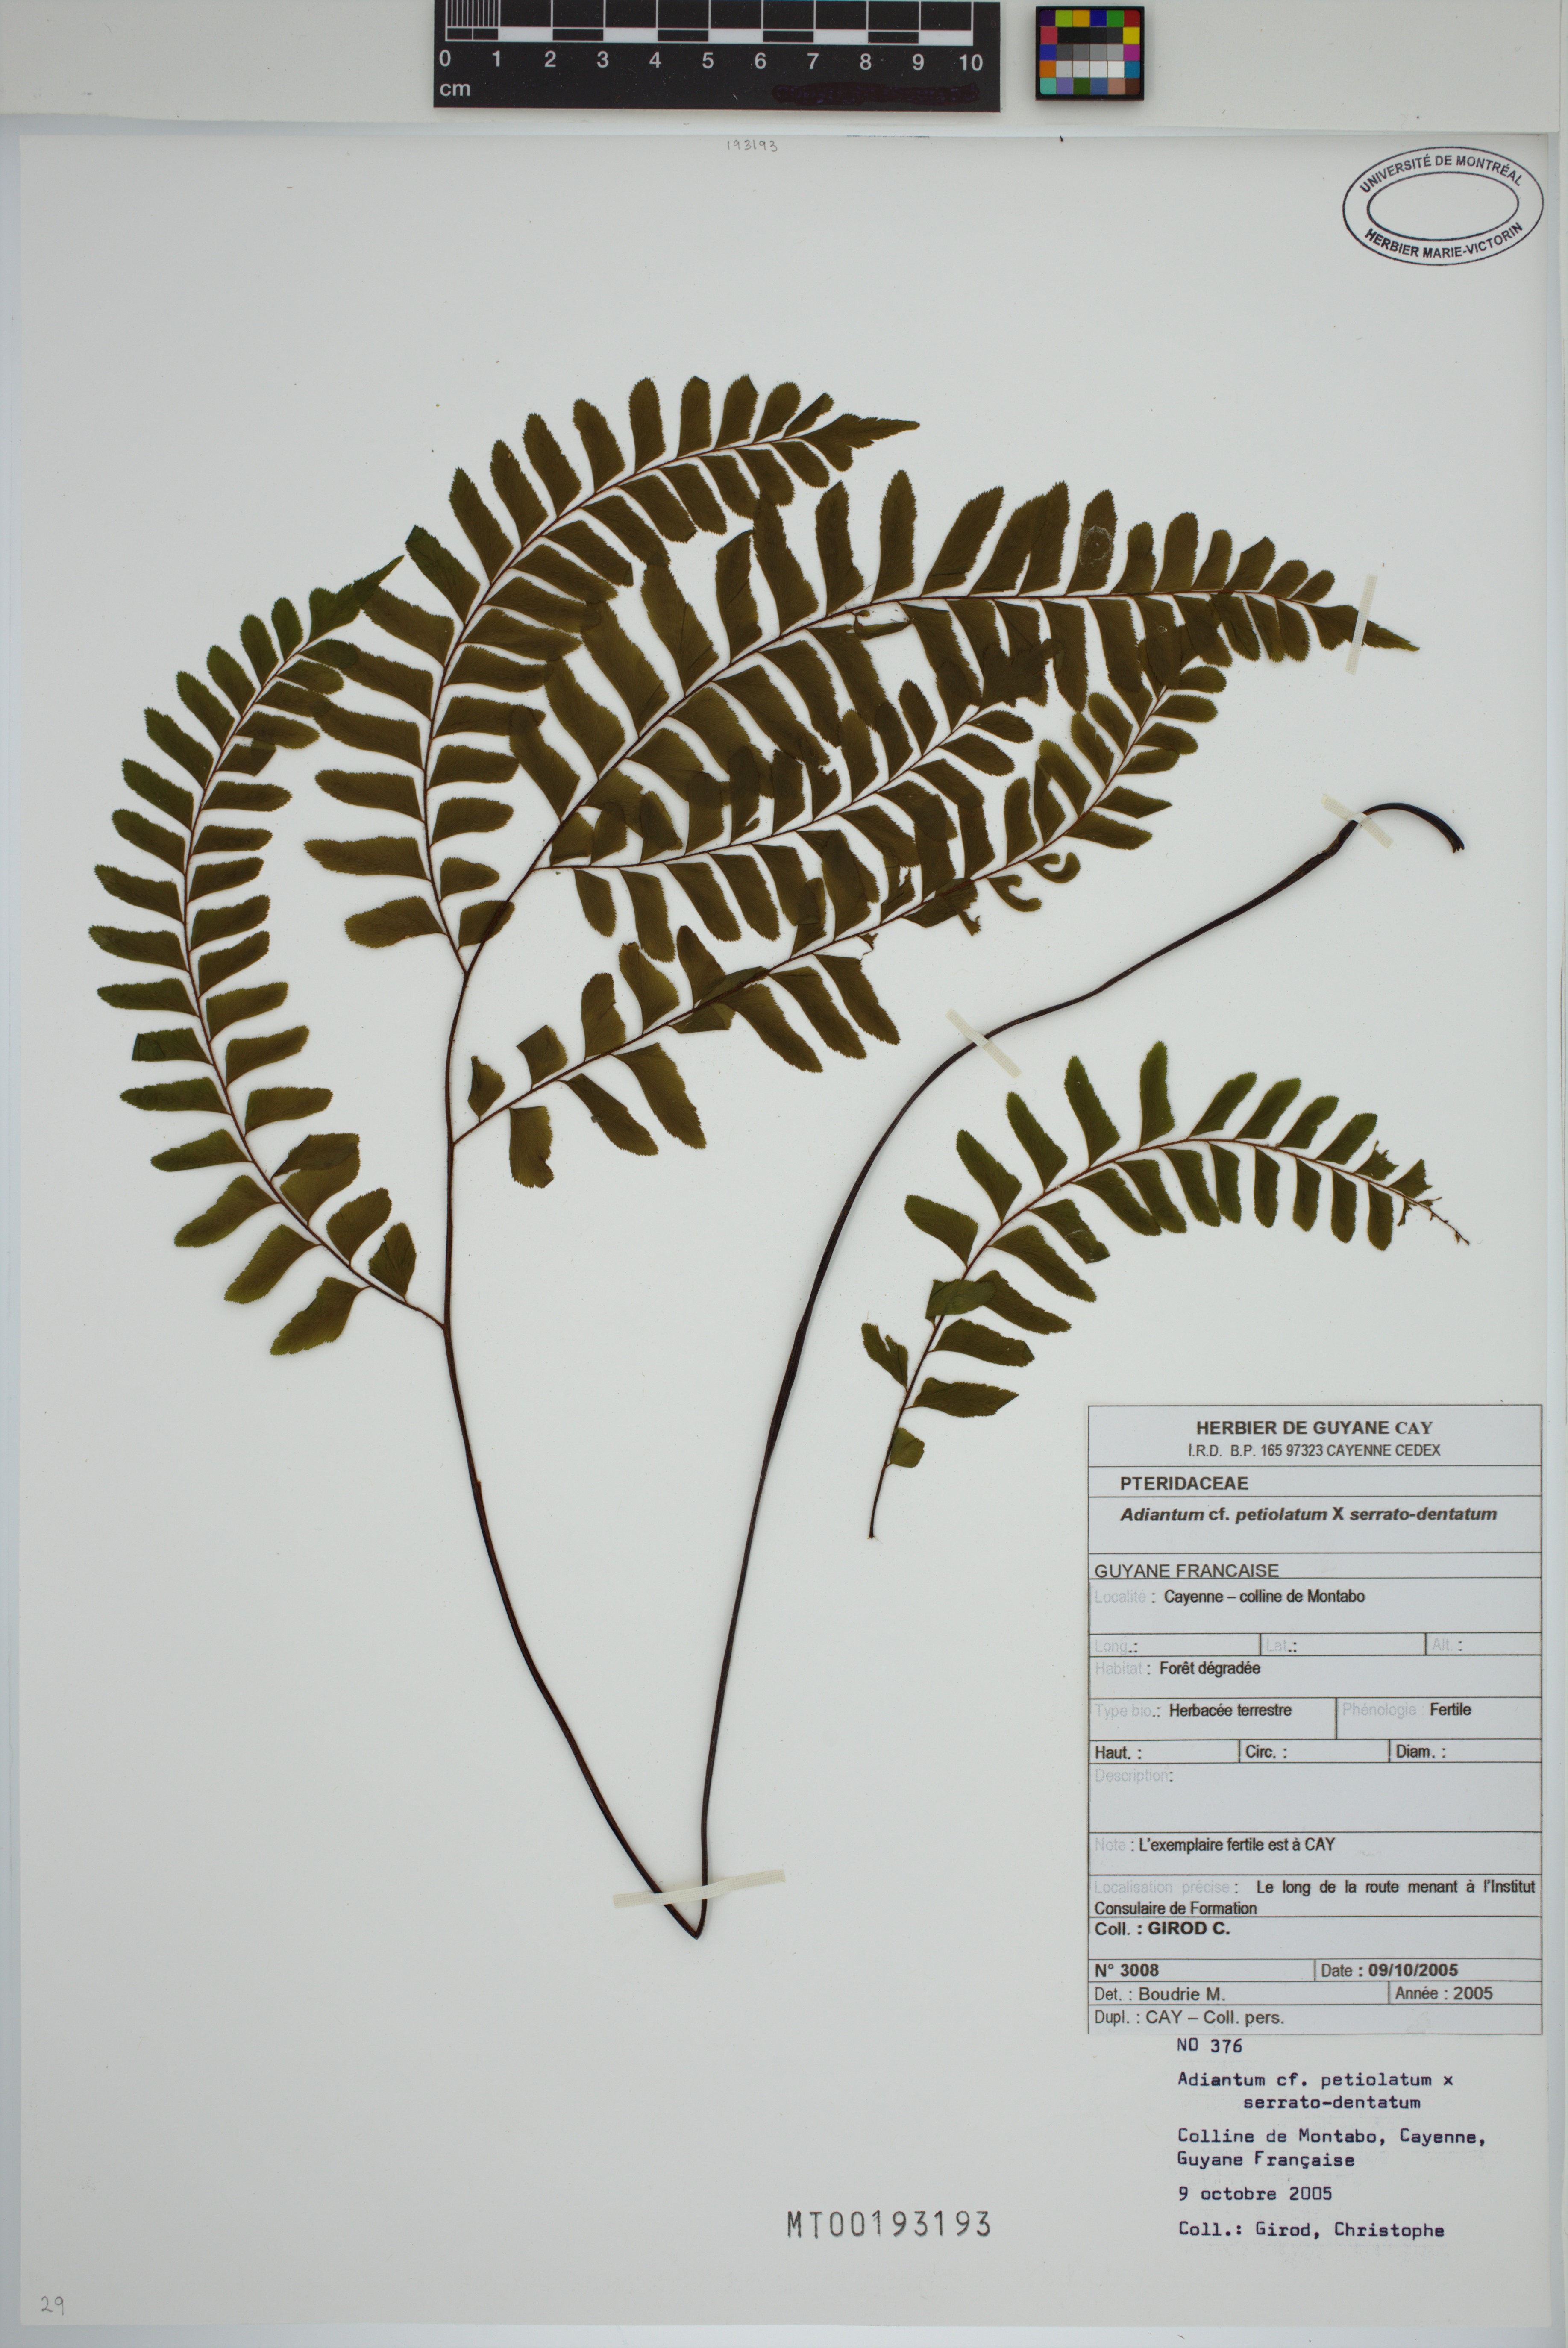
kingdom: Plantae
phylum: Tracheophyta
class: Polypodiopsida
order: Polypodiales
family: Pteridaceae
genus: Adiantum
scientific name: Adiantum petiolatum
